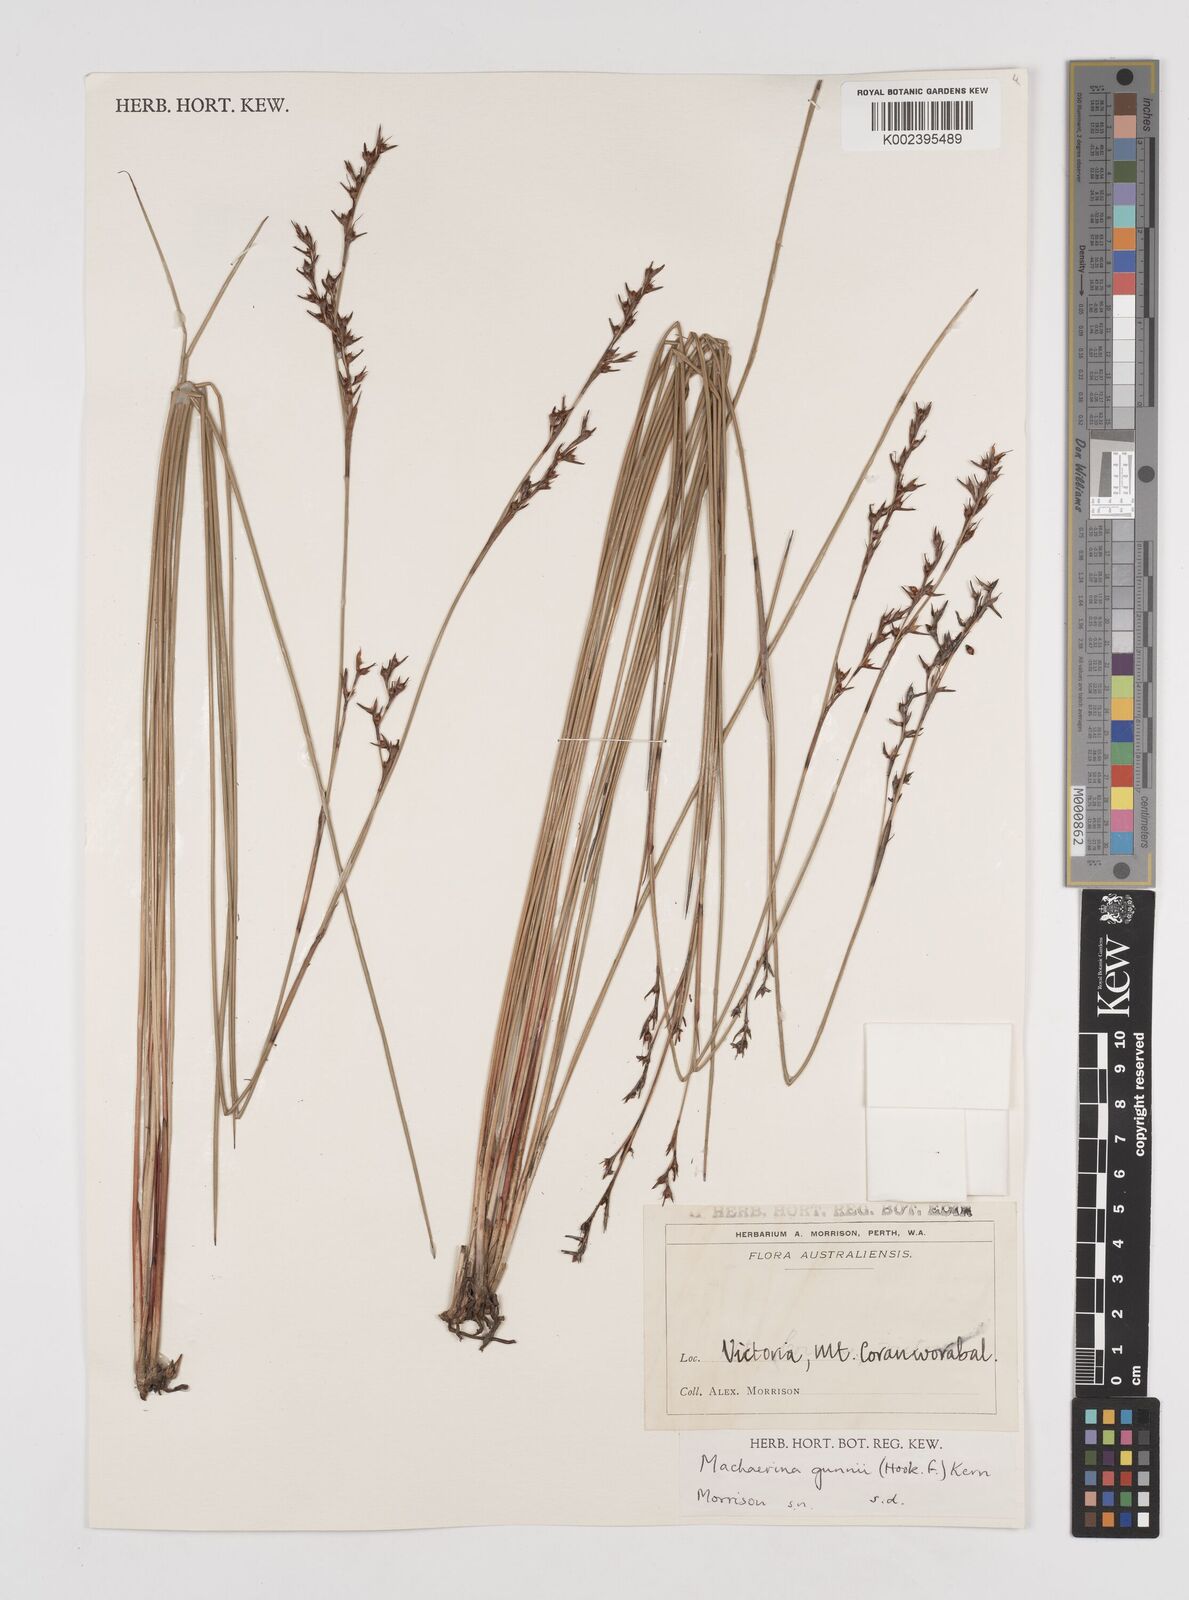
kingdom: Plantae
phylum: Tracheophyta
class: Liliopsida
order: Poales
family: Cyperaceae
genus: Machaerina
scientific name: Machaerina gunnii
